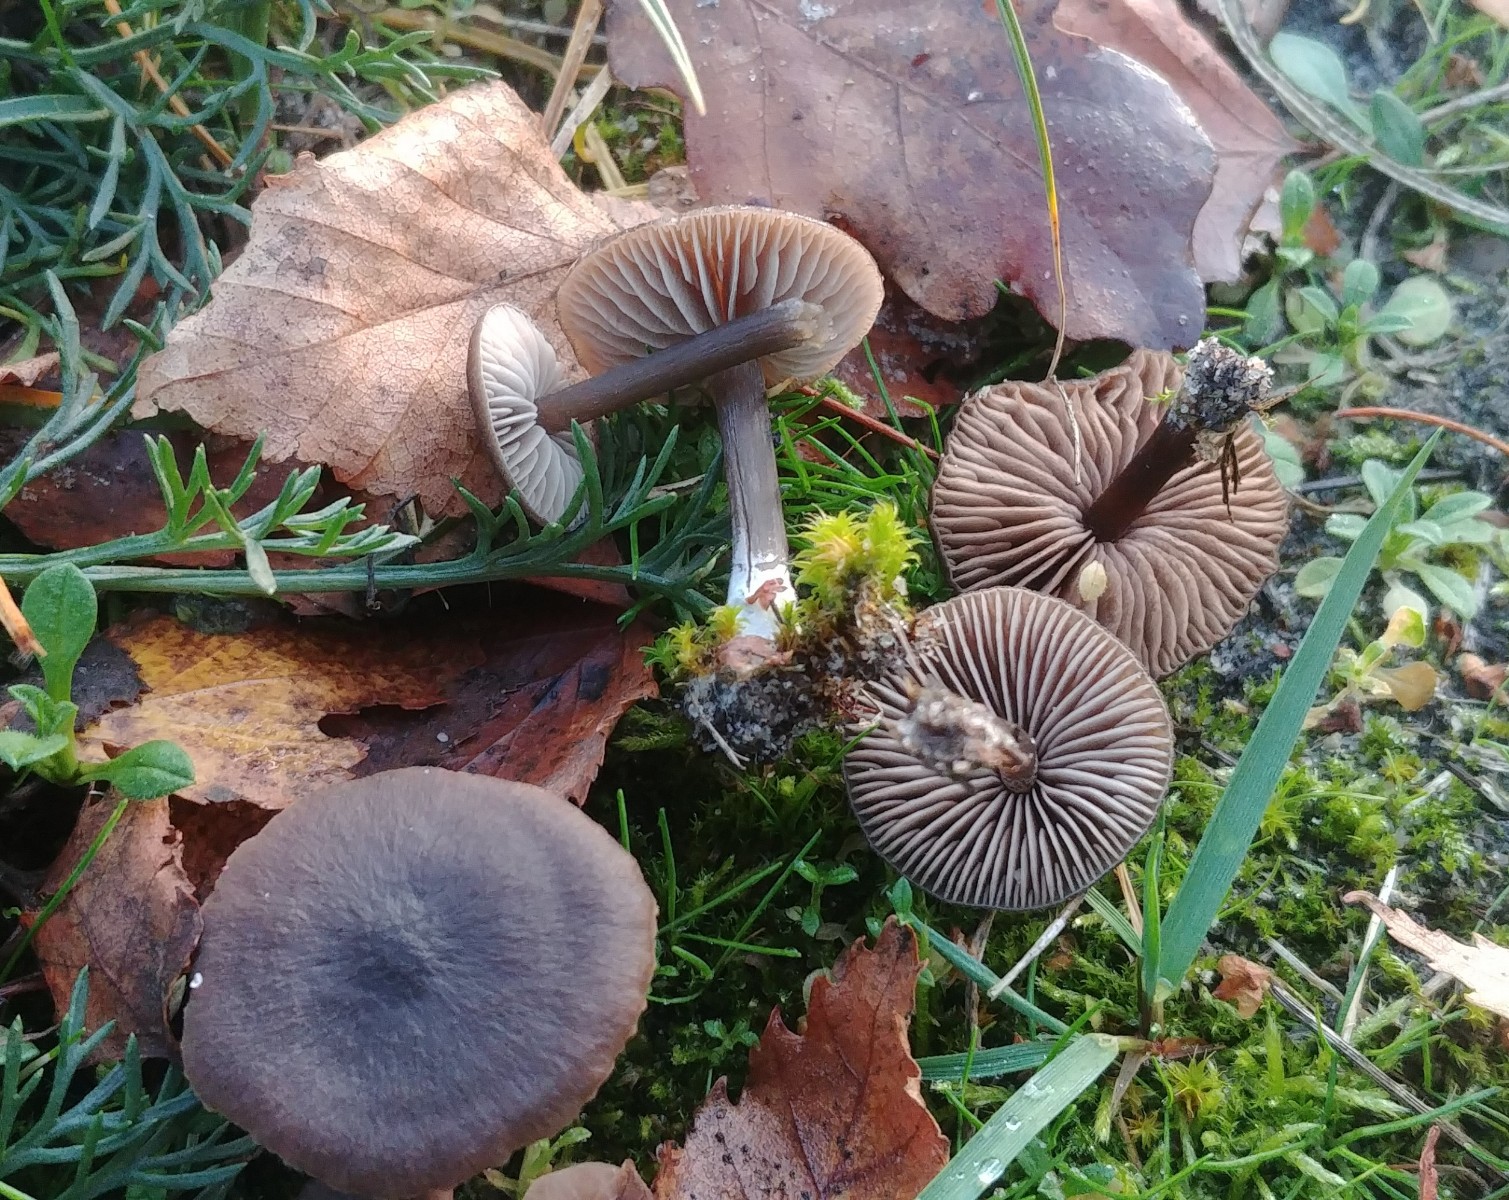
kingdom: Fungi
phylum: Basidiomycota
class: Agaricomycetes
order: Agaricales
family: Entolomataceae
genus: Entoloma
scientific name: Entoloma
